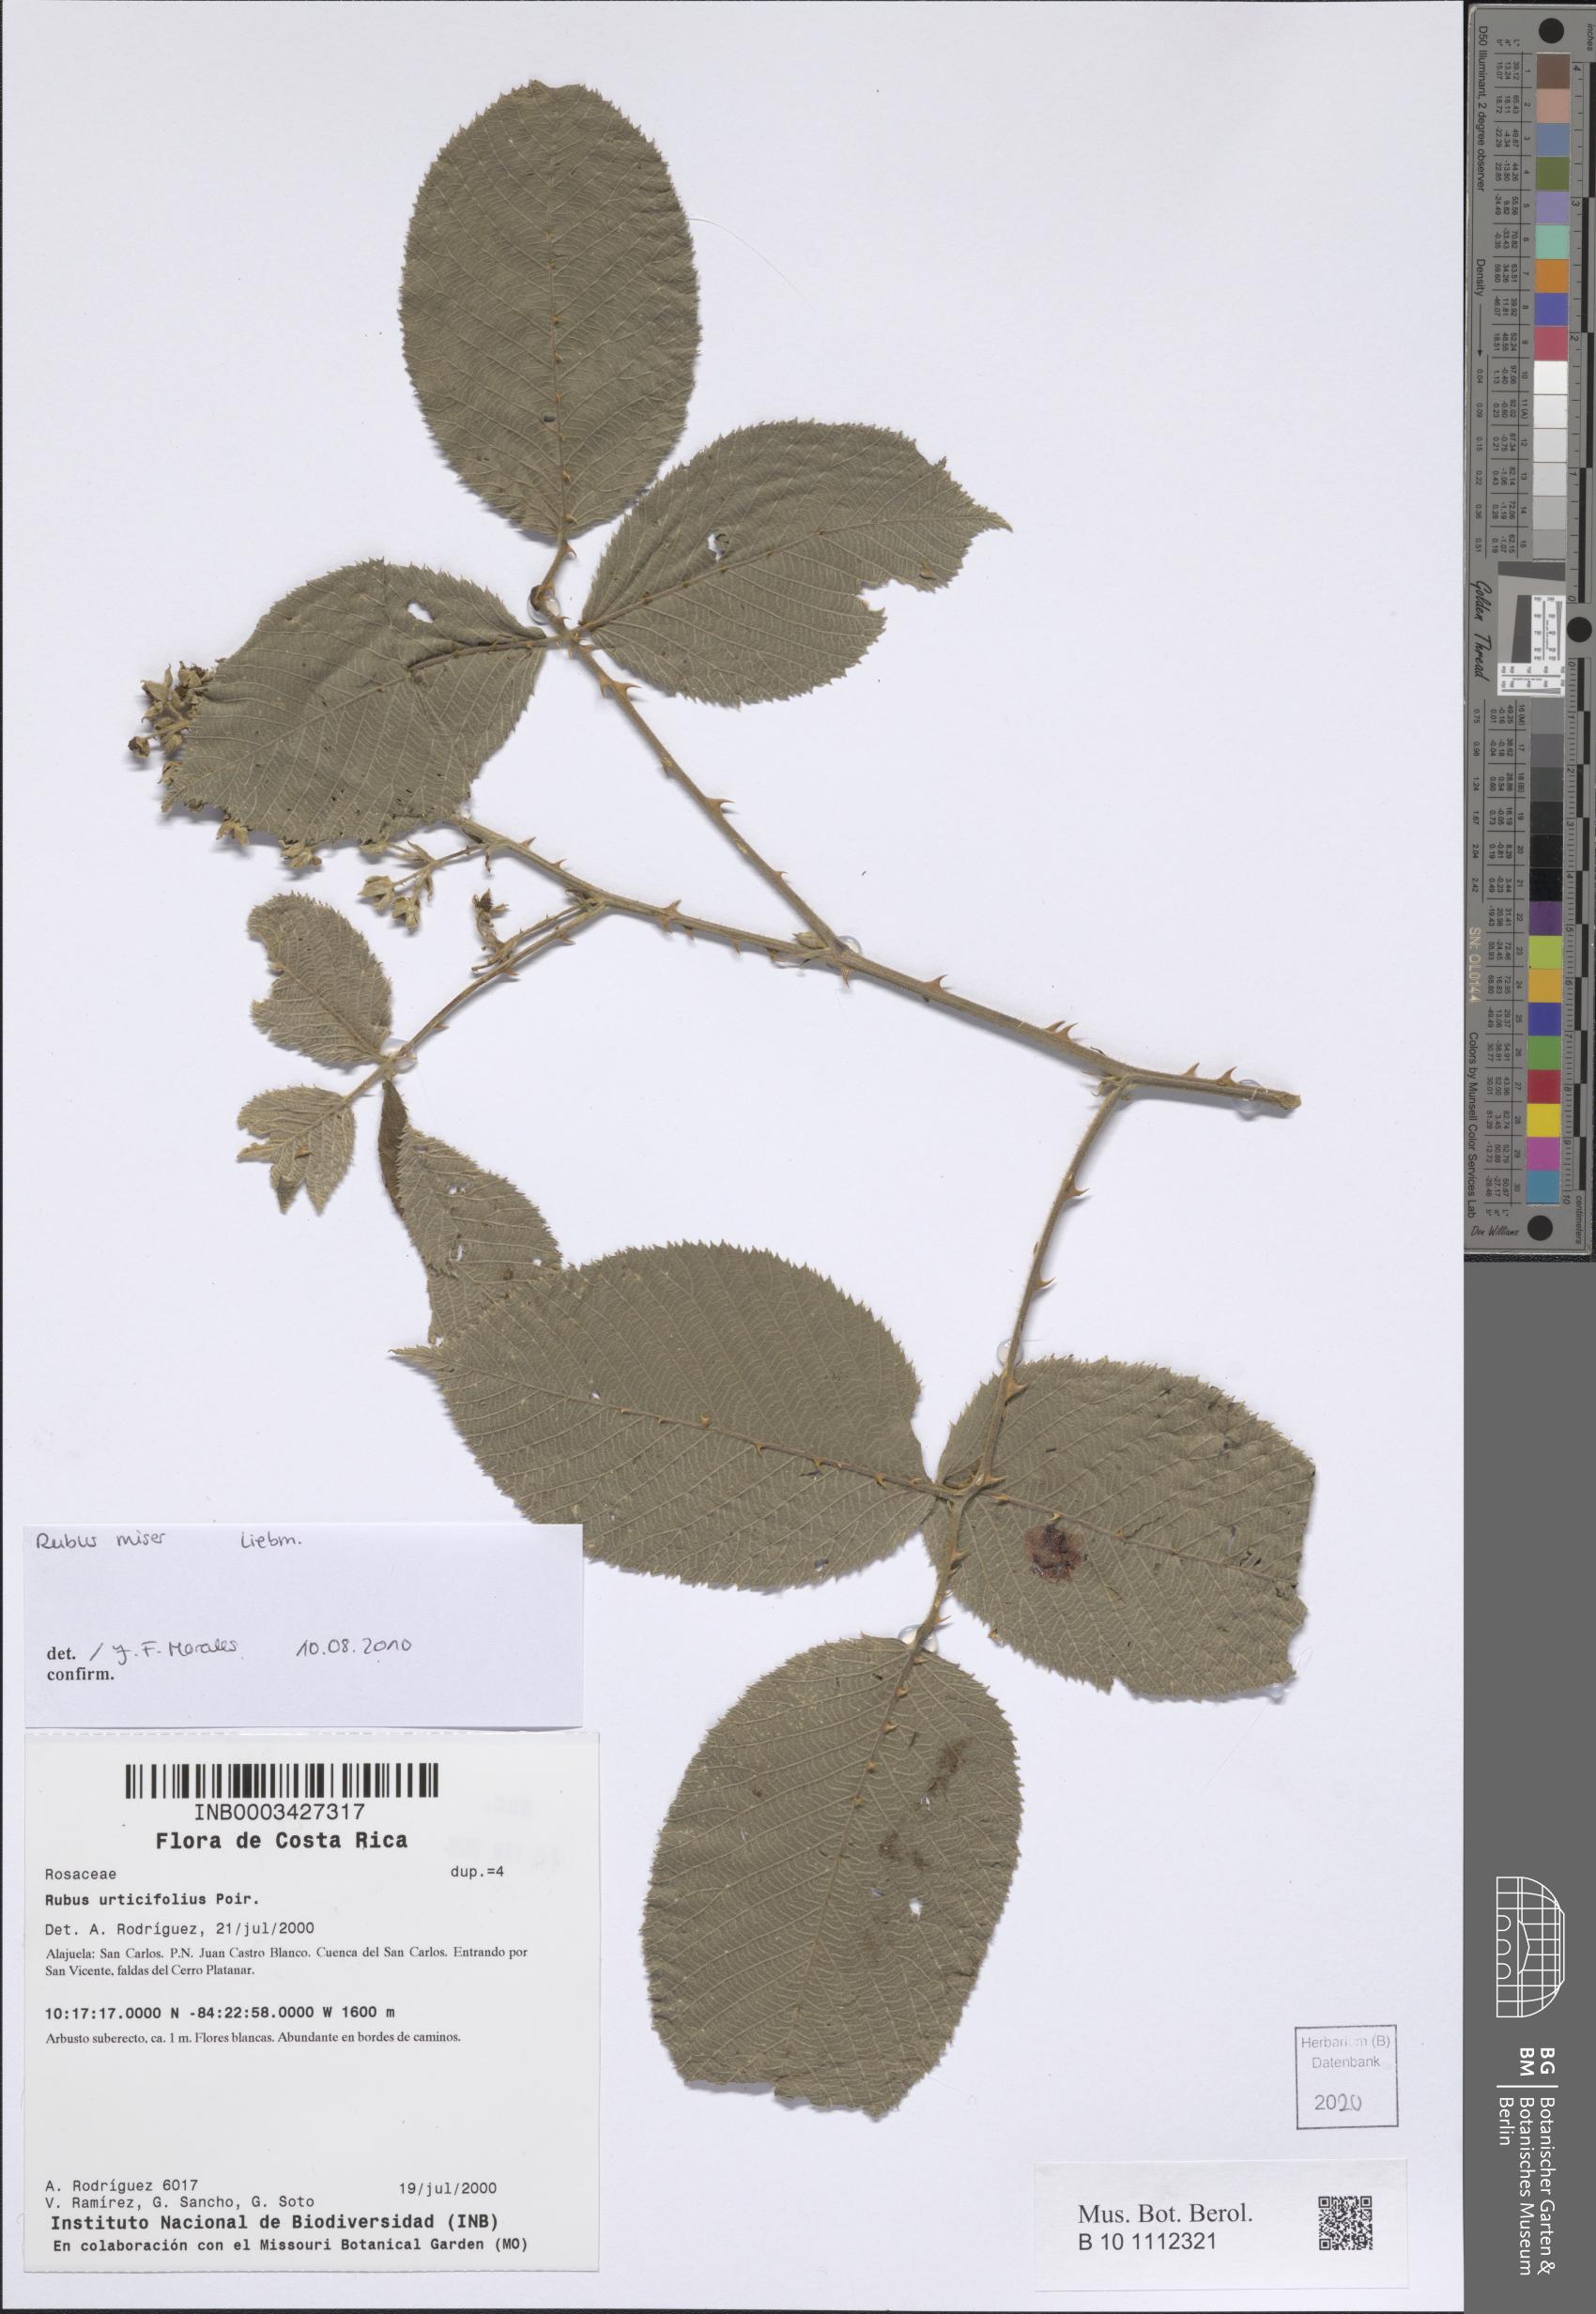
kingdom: Plantae
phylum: Tracheophyta
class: Magnoliopsida
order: Rosales
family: Rosaceae
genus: Rubus
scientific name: Rubus miser
